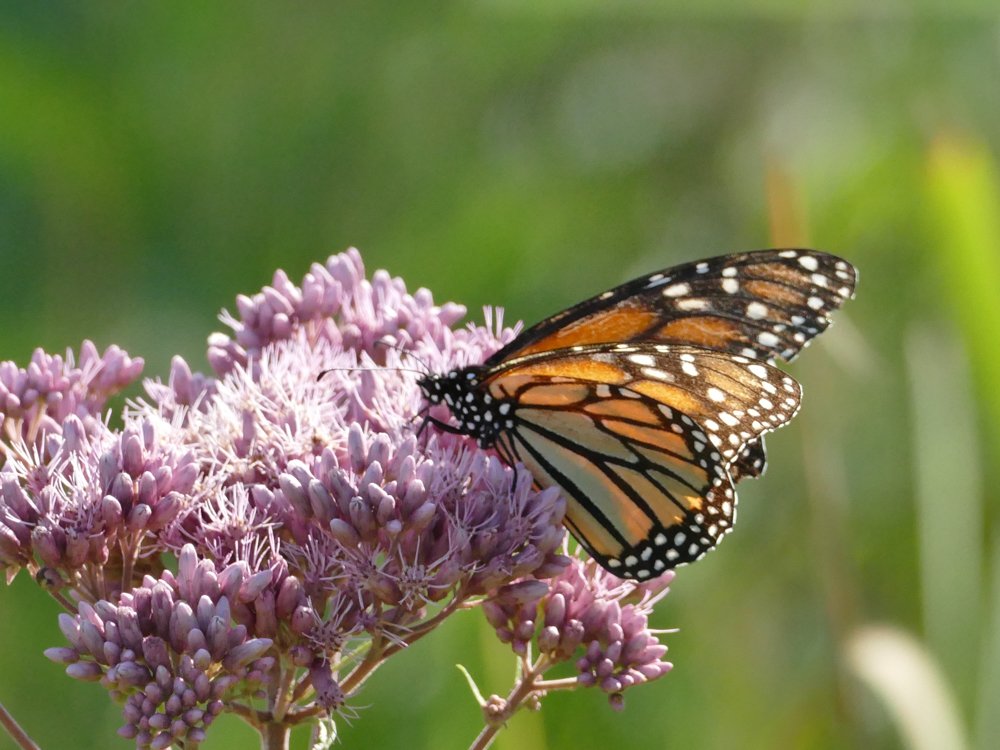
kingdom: Animalia
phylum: Arthropoda
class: Insecta
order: Lepidoptera
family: Nymphalidae
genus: Danaus
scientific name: Danaus plexippus
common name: Monarch
